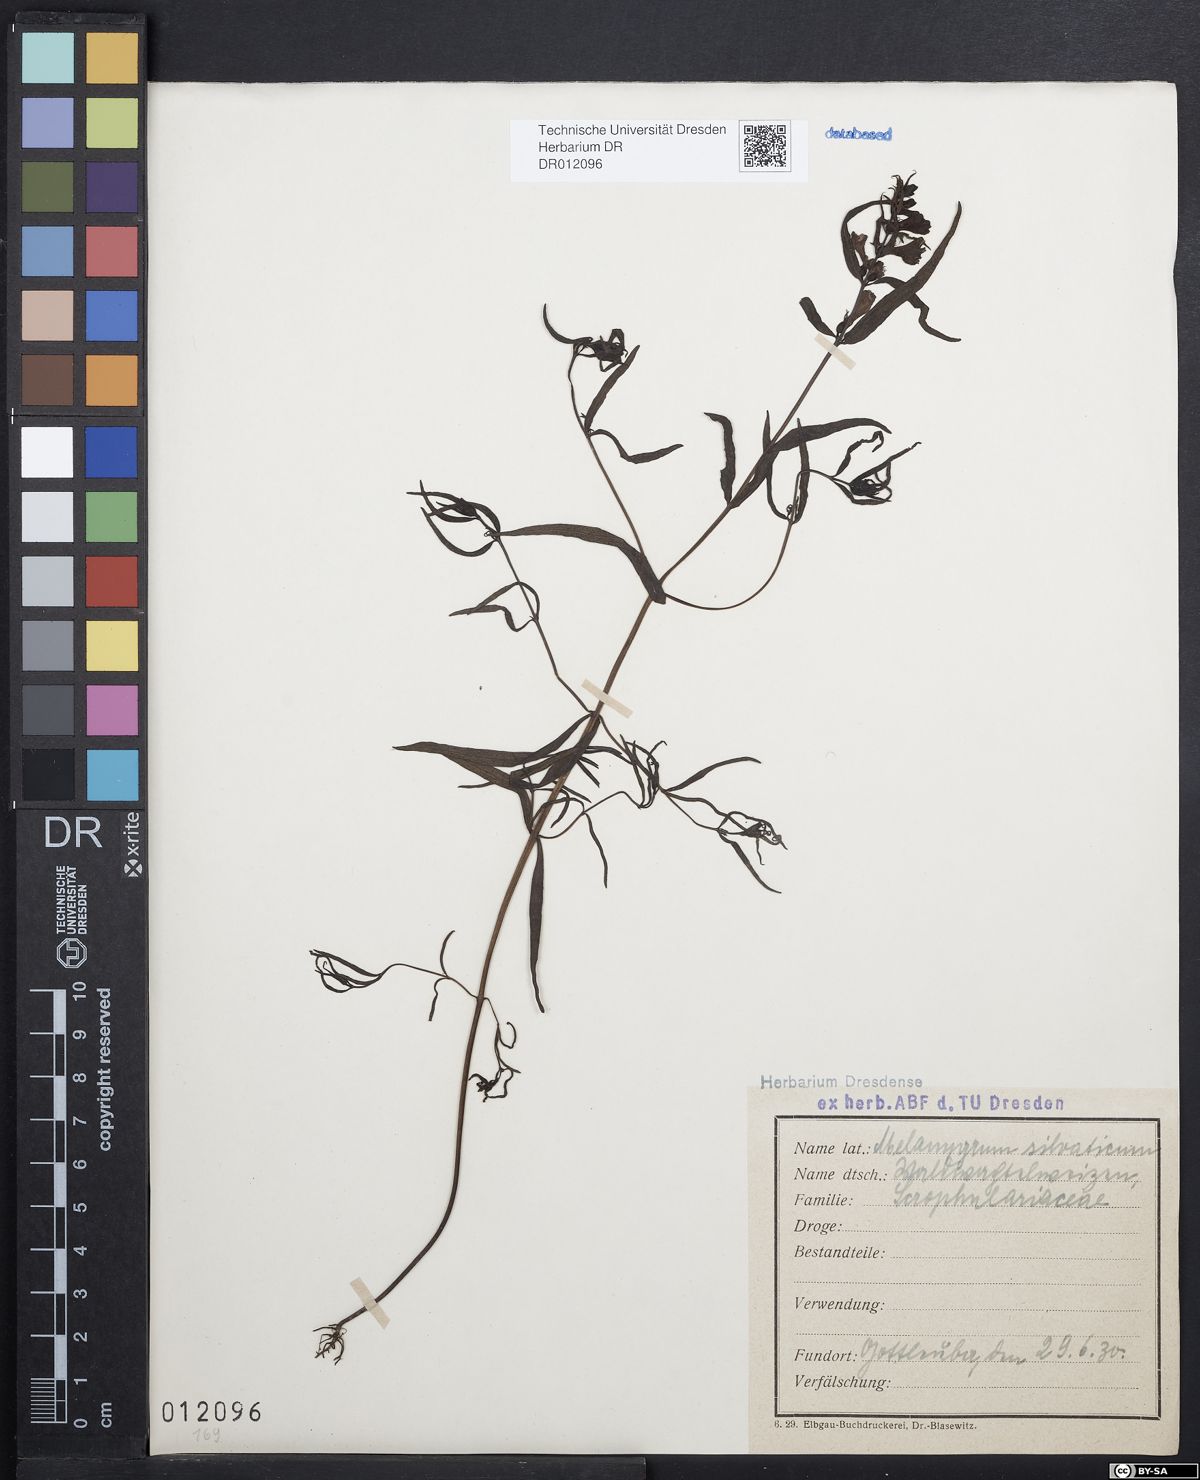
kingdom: Plantae
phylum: Tracheophyta
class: Magnoliopsida
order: Lamiales
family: Orobanchaceae
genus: Melampyrum
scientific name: Melampyrum sylvaticum
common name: Small cow-wheat
